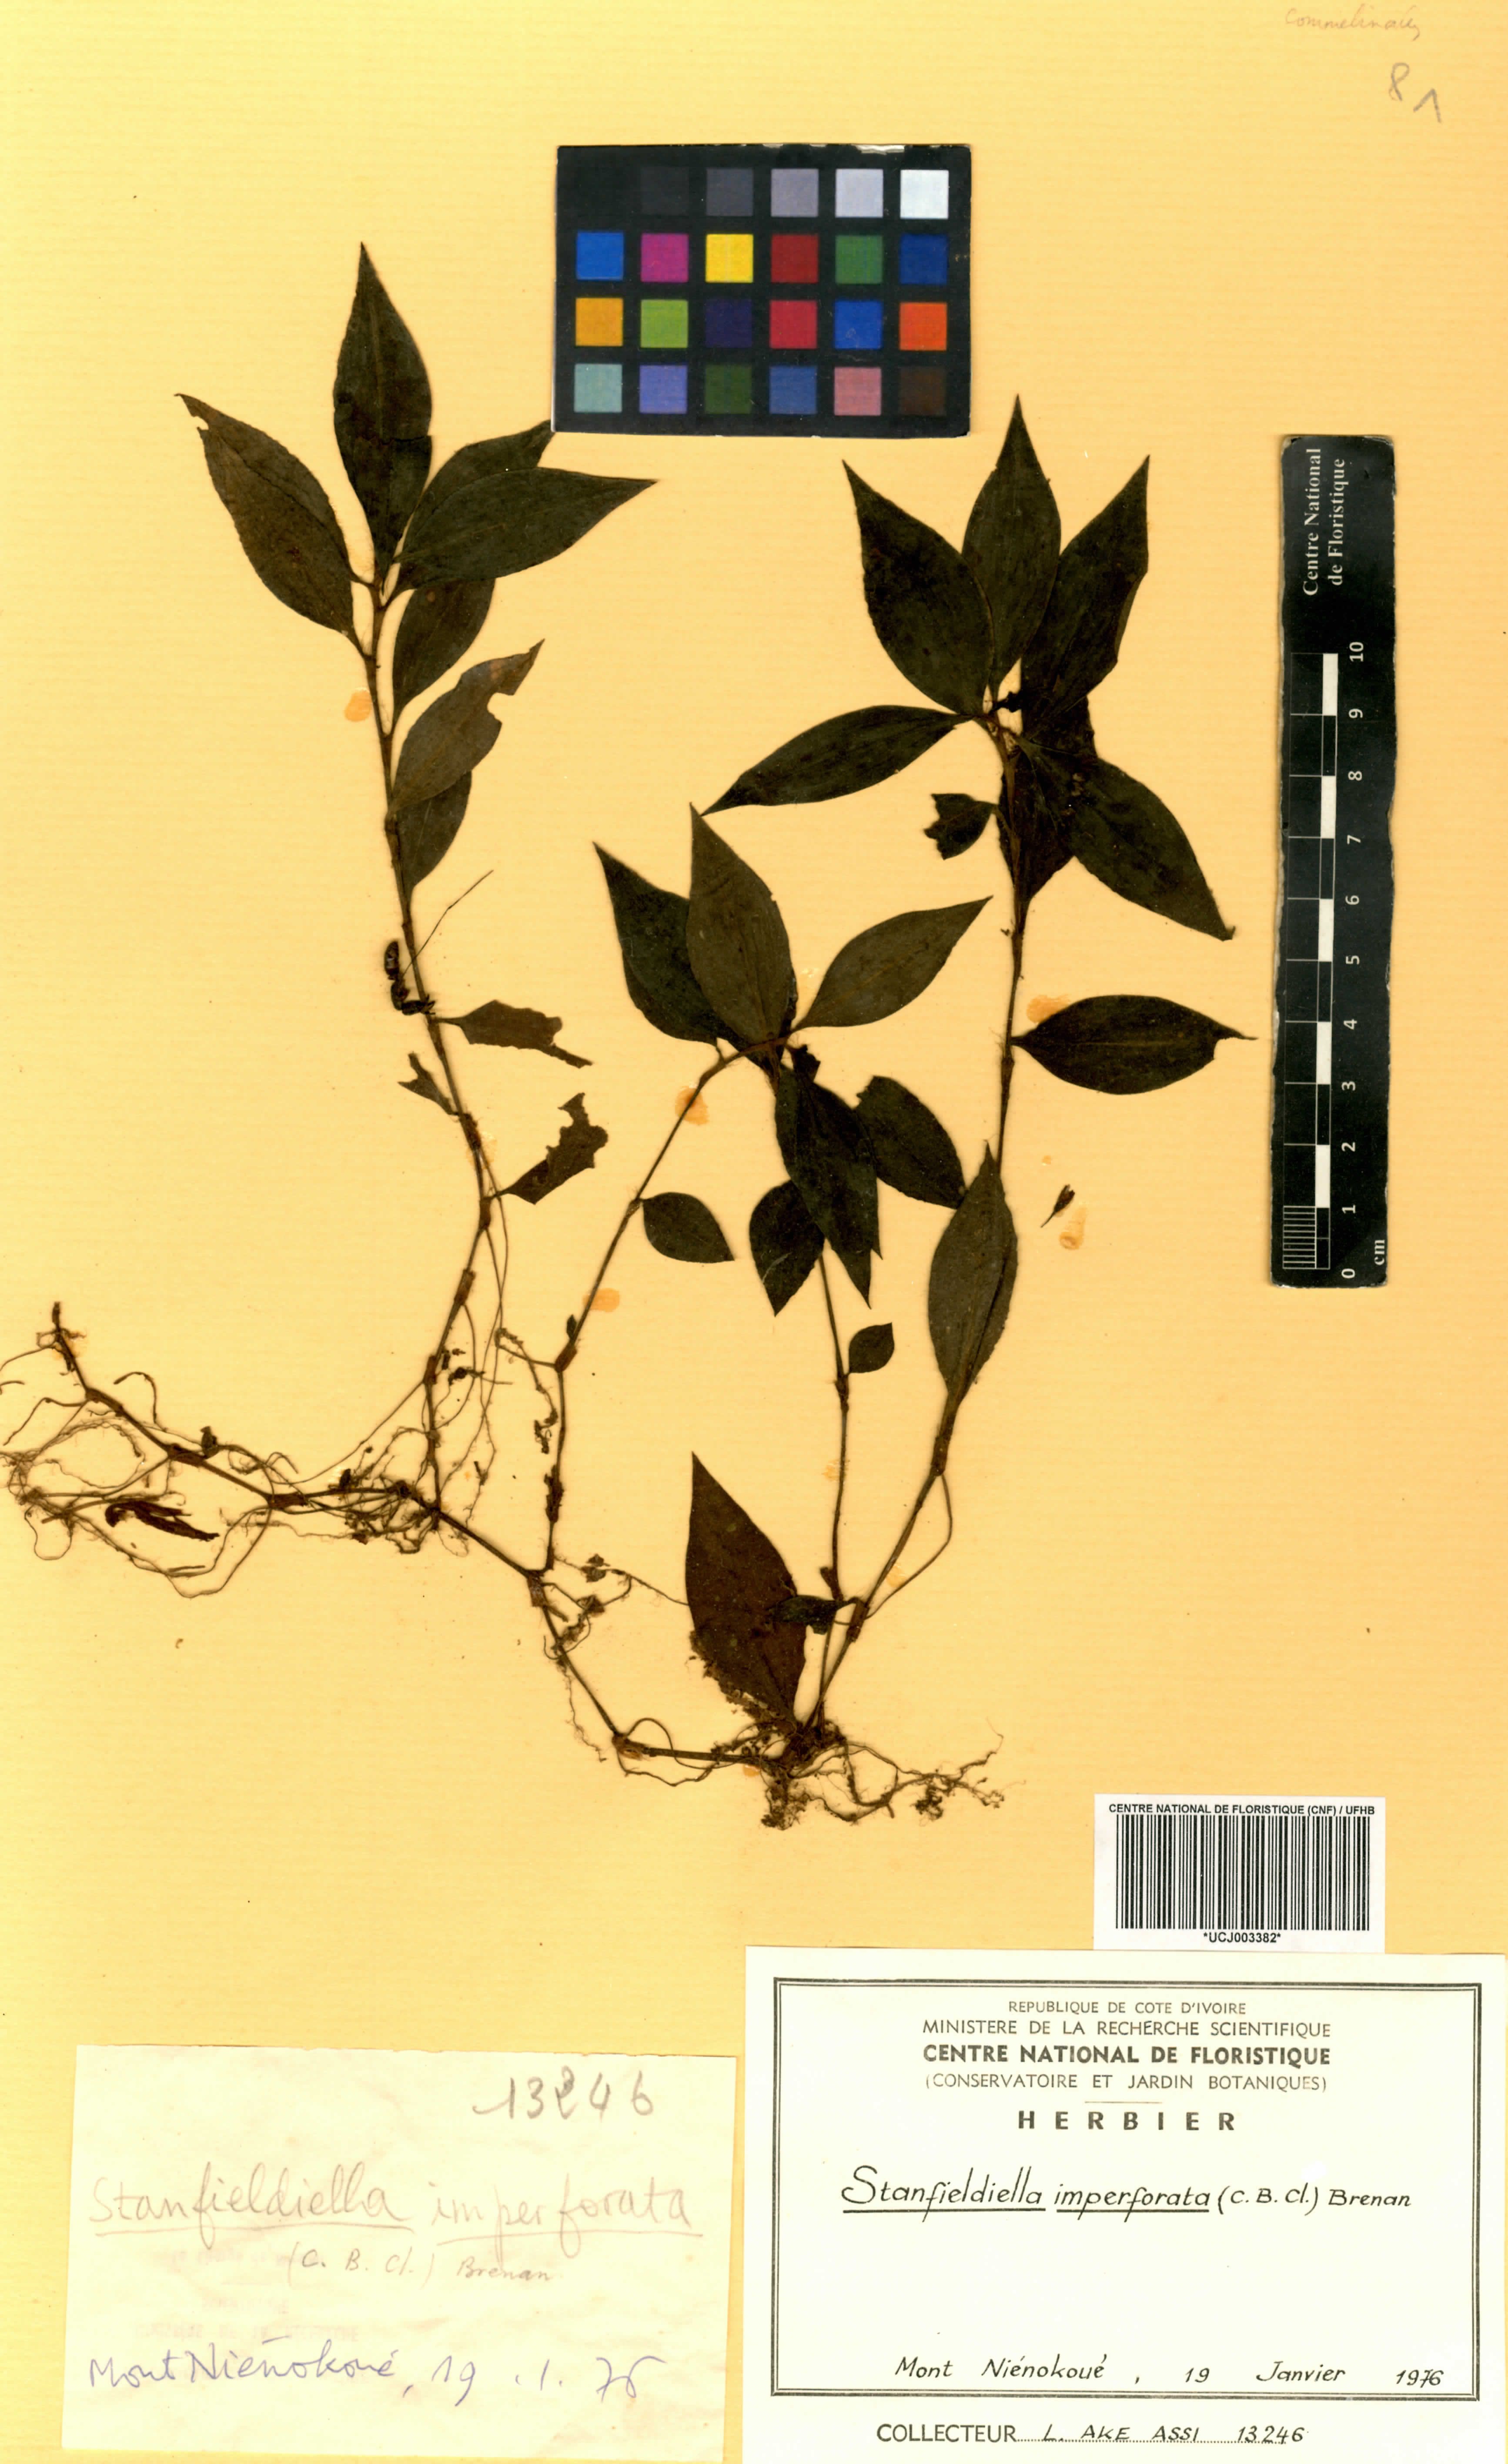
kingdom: Plantae
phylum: Tracheophyta
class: Liliopsida
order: Commelinales
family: Commelinaceae
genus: Stanfieldiella
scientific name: Stanfieldiella imperforata
